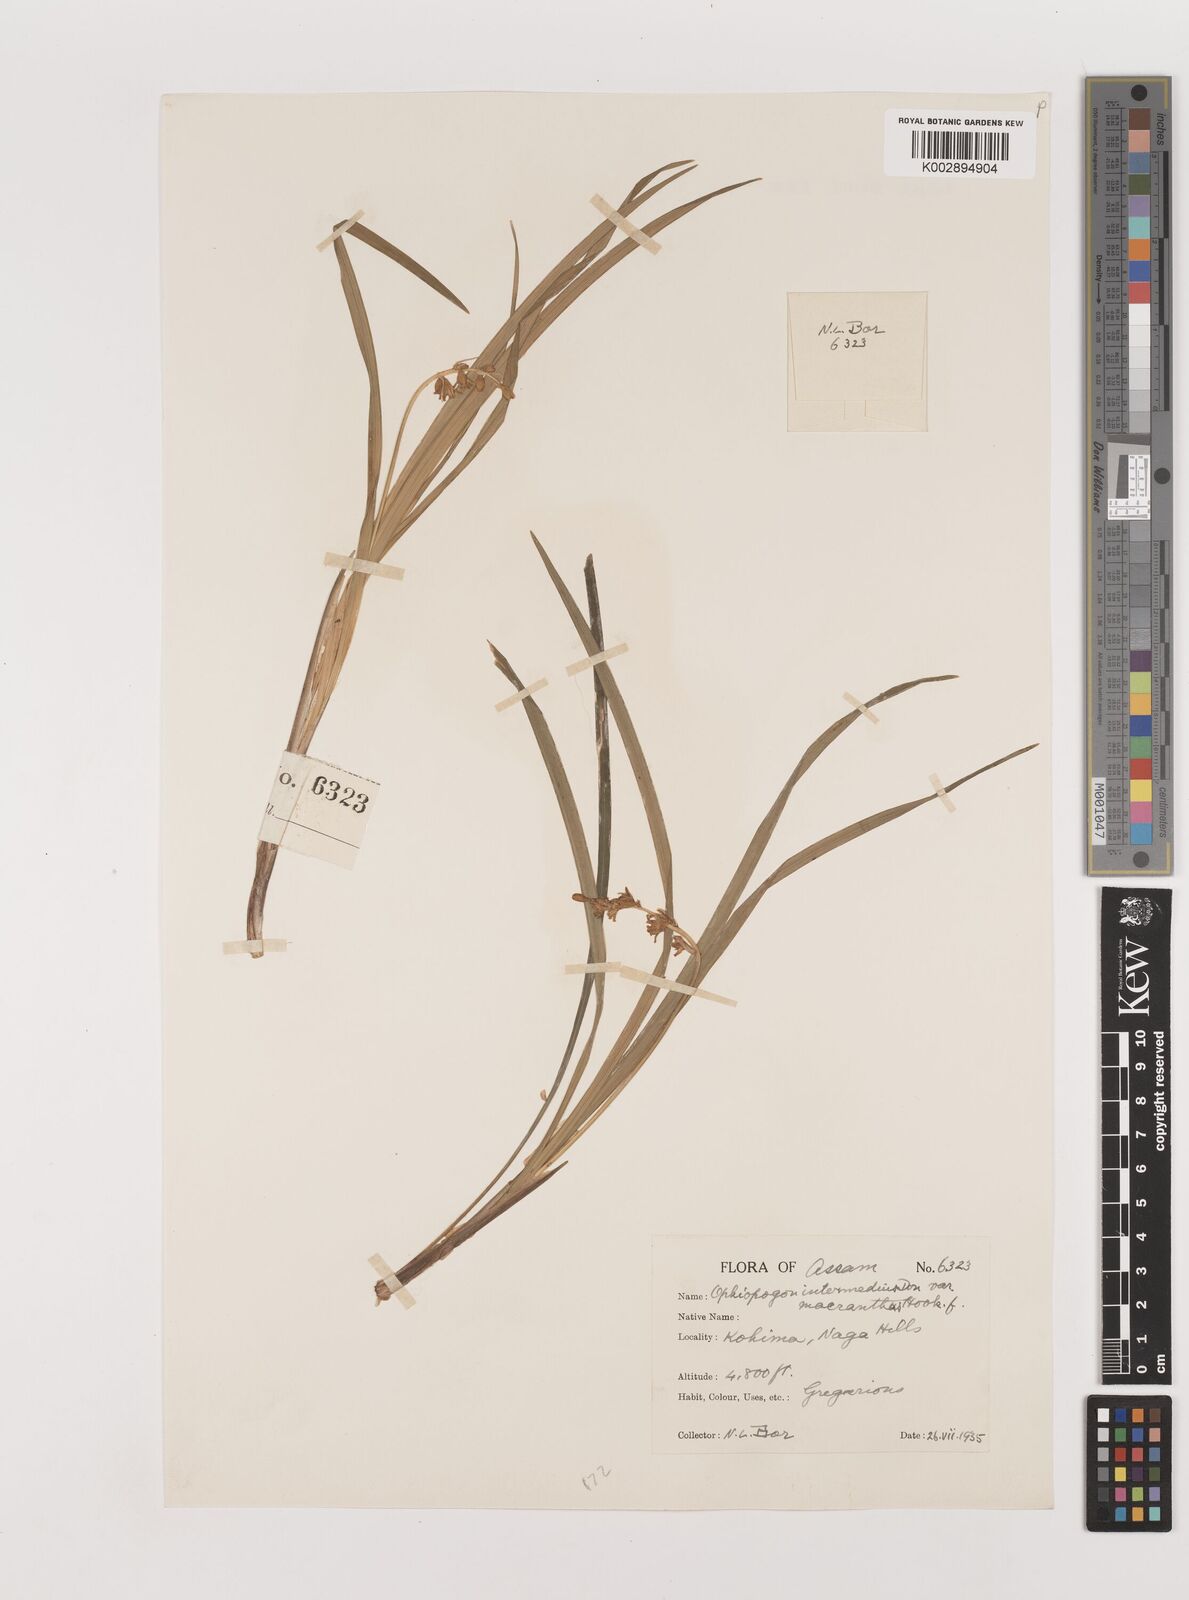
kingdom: Plantae
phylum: Tracheophyta
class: Liliopsida
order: Asparagales
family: Asparagaceae
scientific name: Asparagaceae
